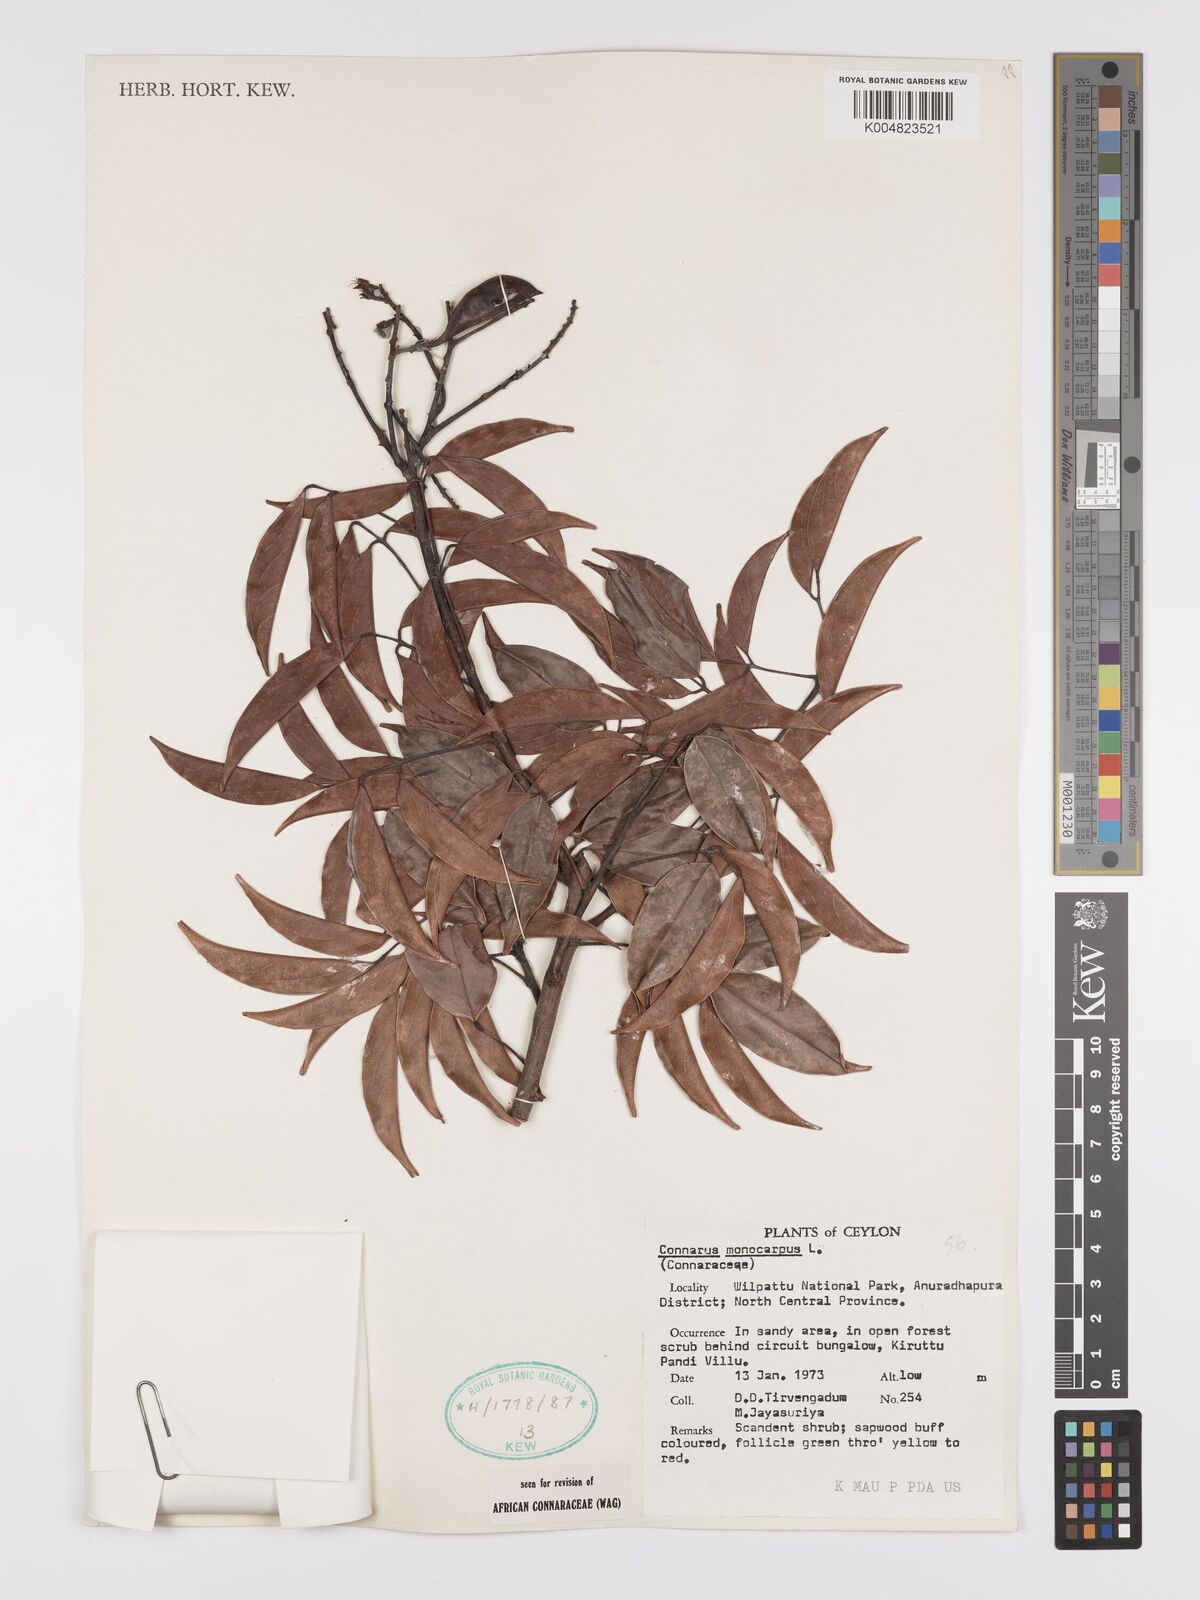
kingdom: Plantae
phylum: Tracheophyta
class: Magnoliopsida
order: Oxalidales
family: Connaraceae
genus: Connarus
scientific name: Connarus semidecandrus
